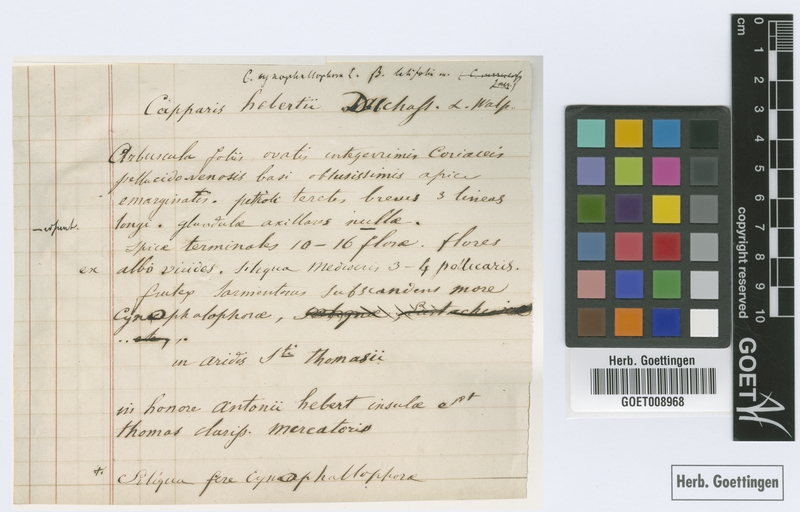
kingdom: Plantae
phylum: Tracheophyta
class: Magnoliopsida
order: Brassicales
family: Capparaceae
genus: Cynophalla
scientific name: Cynophalla hastata
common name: Broadleaf cape
